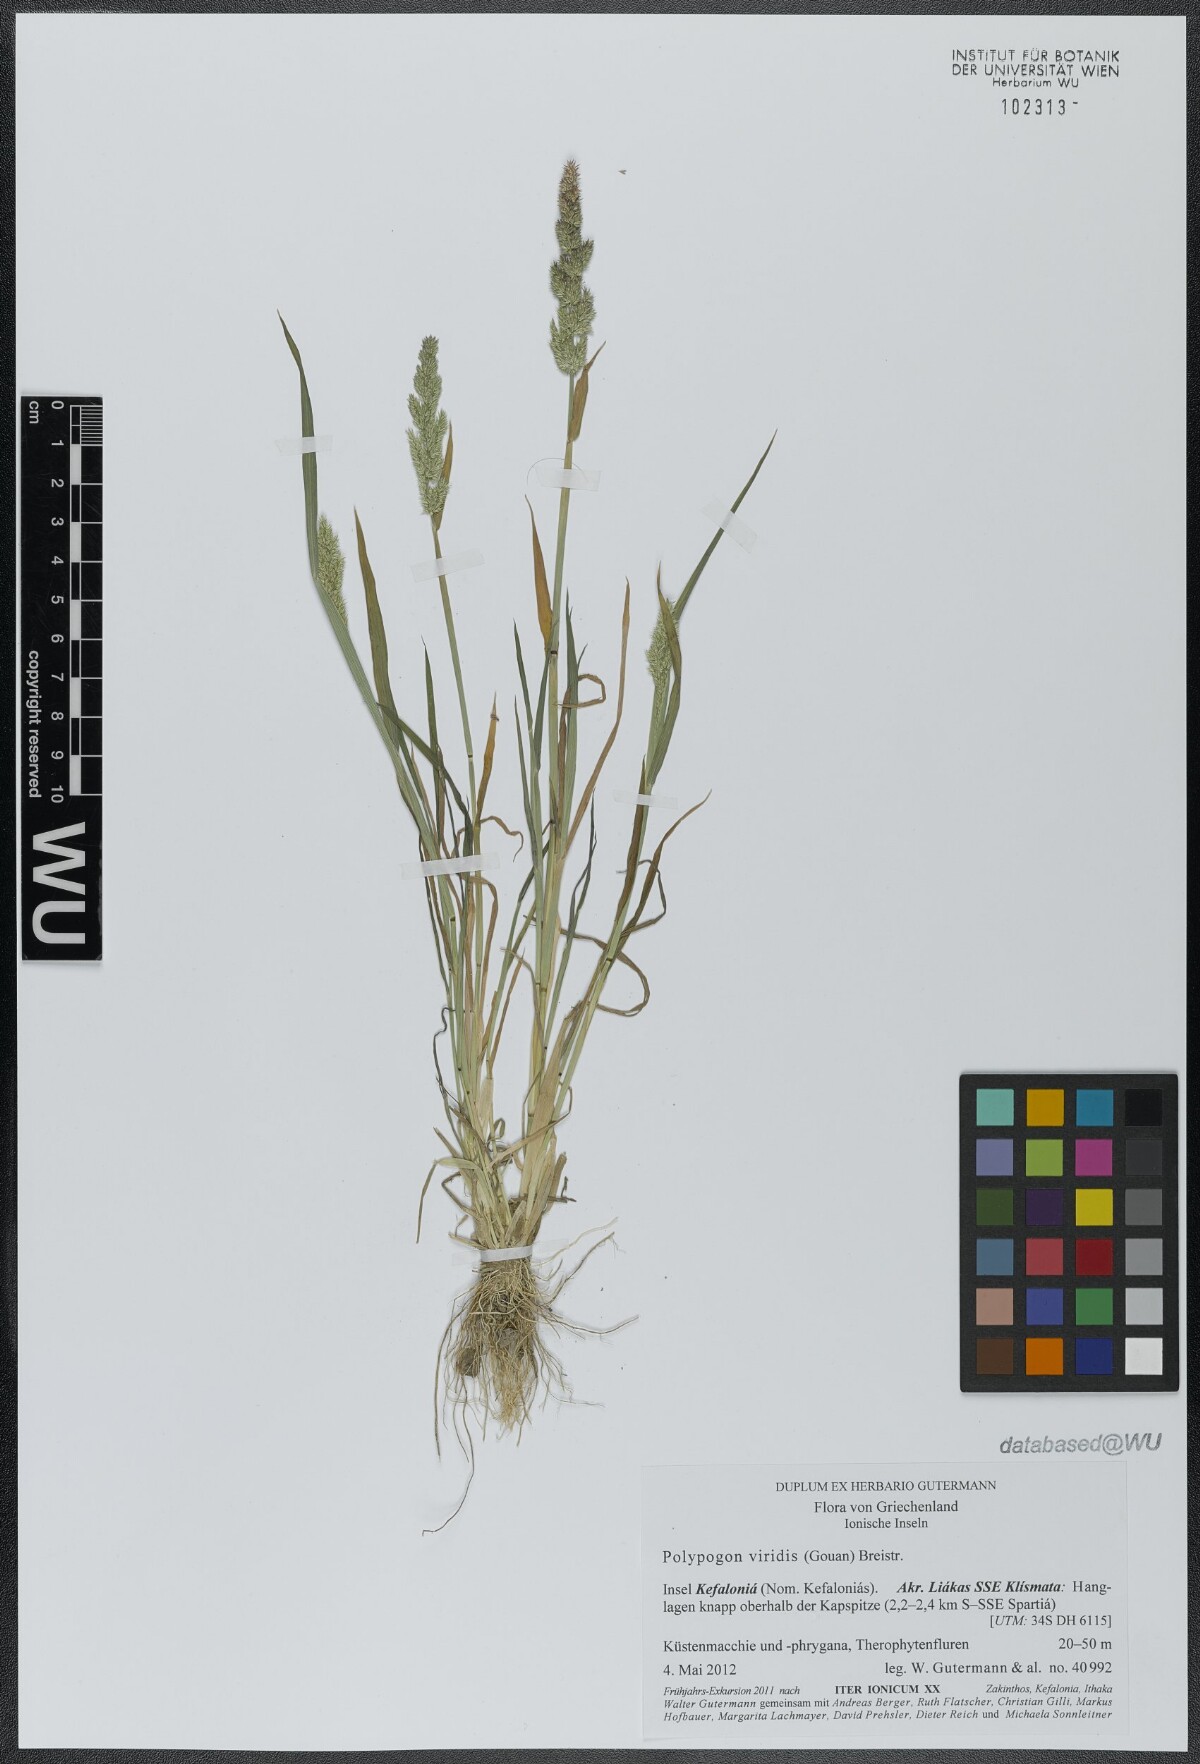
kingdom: Plantae
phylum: Tracheophyta
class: Liliopsida
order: Poales
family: Poaceae
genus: Polypogon
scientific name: Polypogon viridis
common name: Water bent
